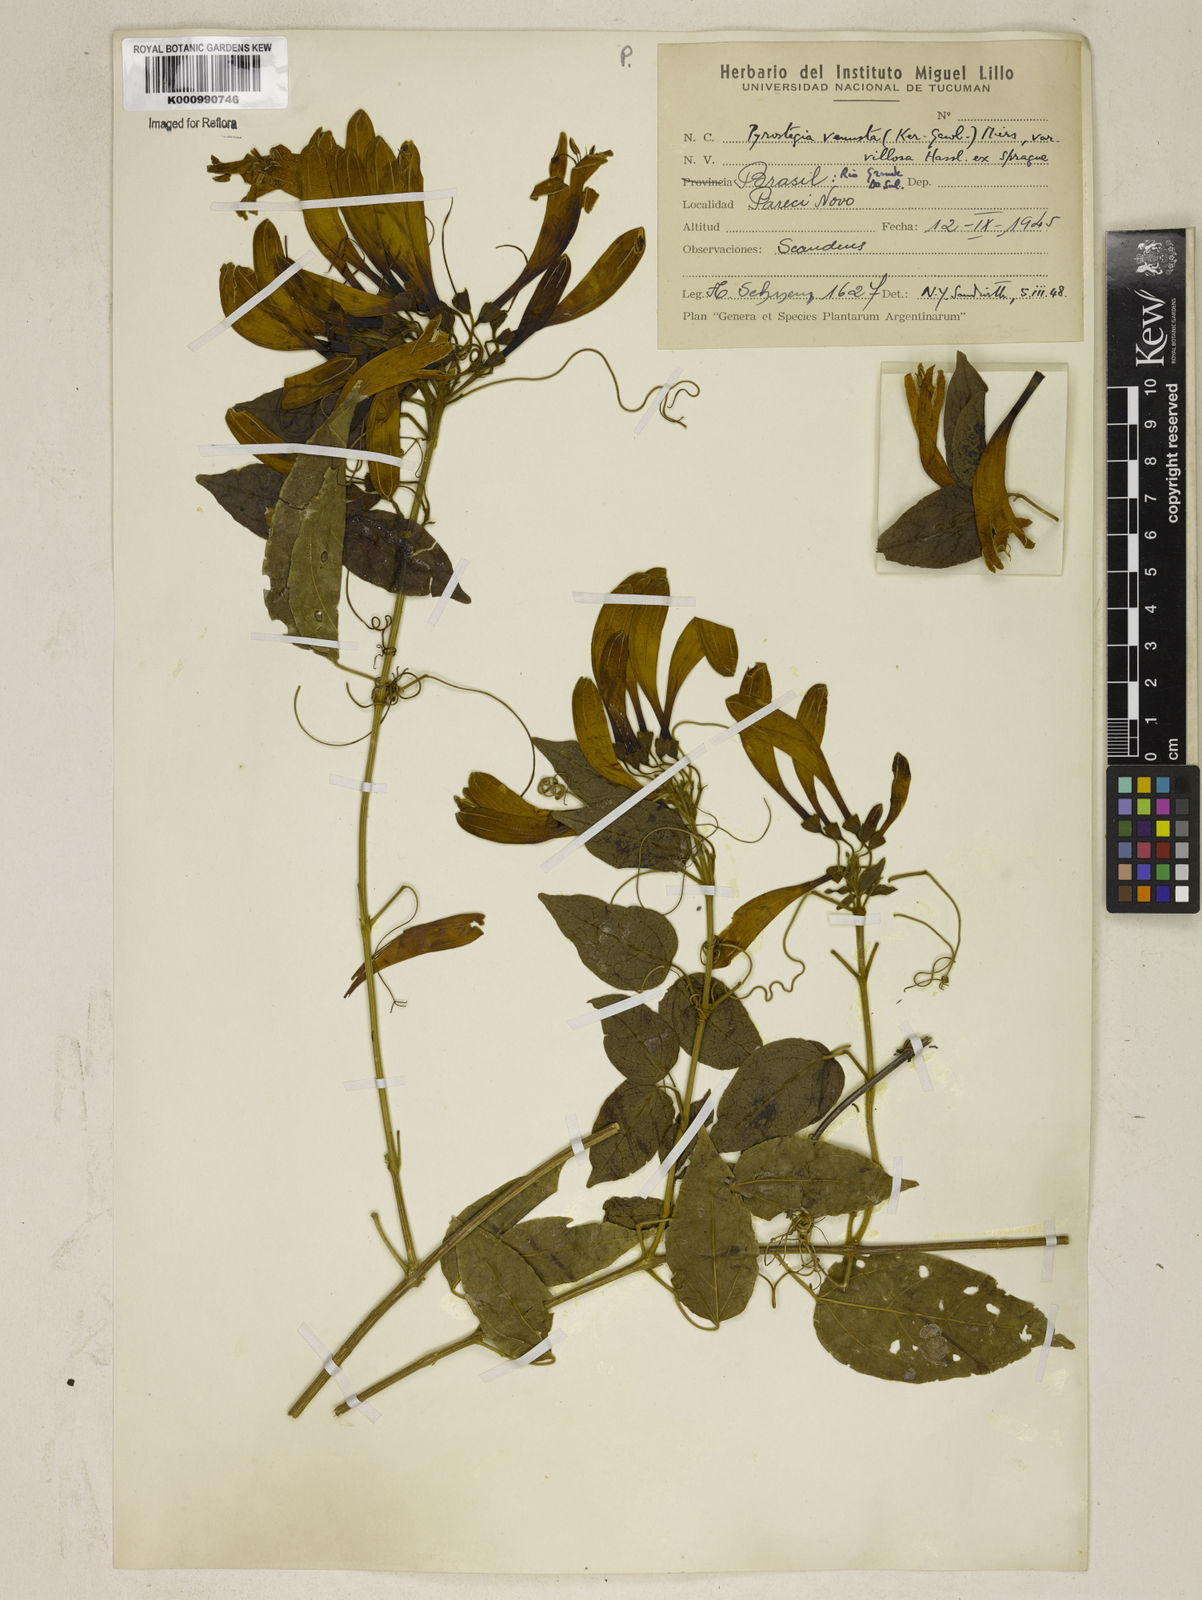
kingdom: Plantae
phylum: Tracheophyta
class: Magnoliopsida
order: Lamiales
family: Bignoniaceae
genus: Pyrostegia
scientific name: Pyrostegia venusta
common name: Flamevine
